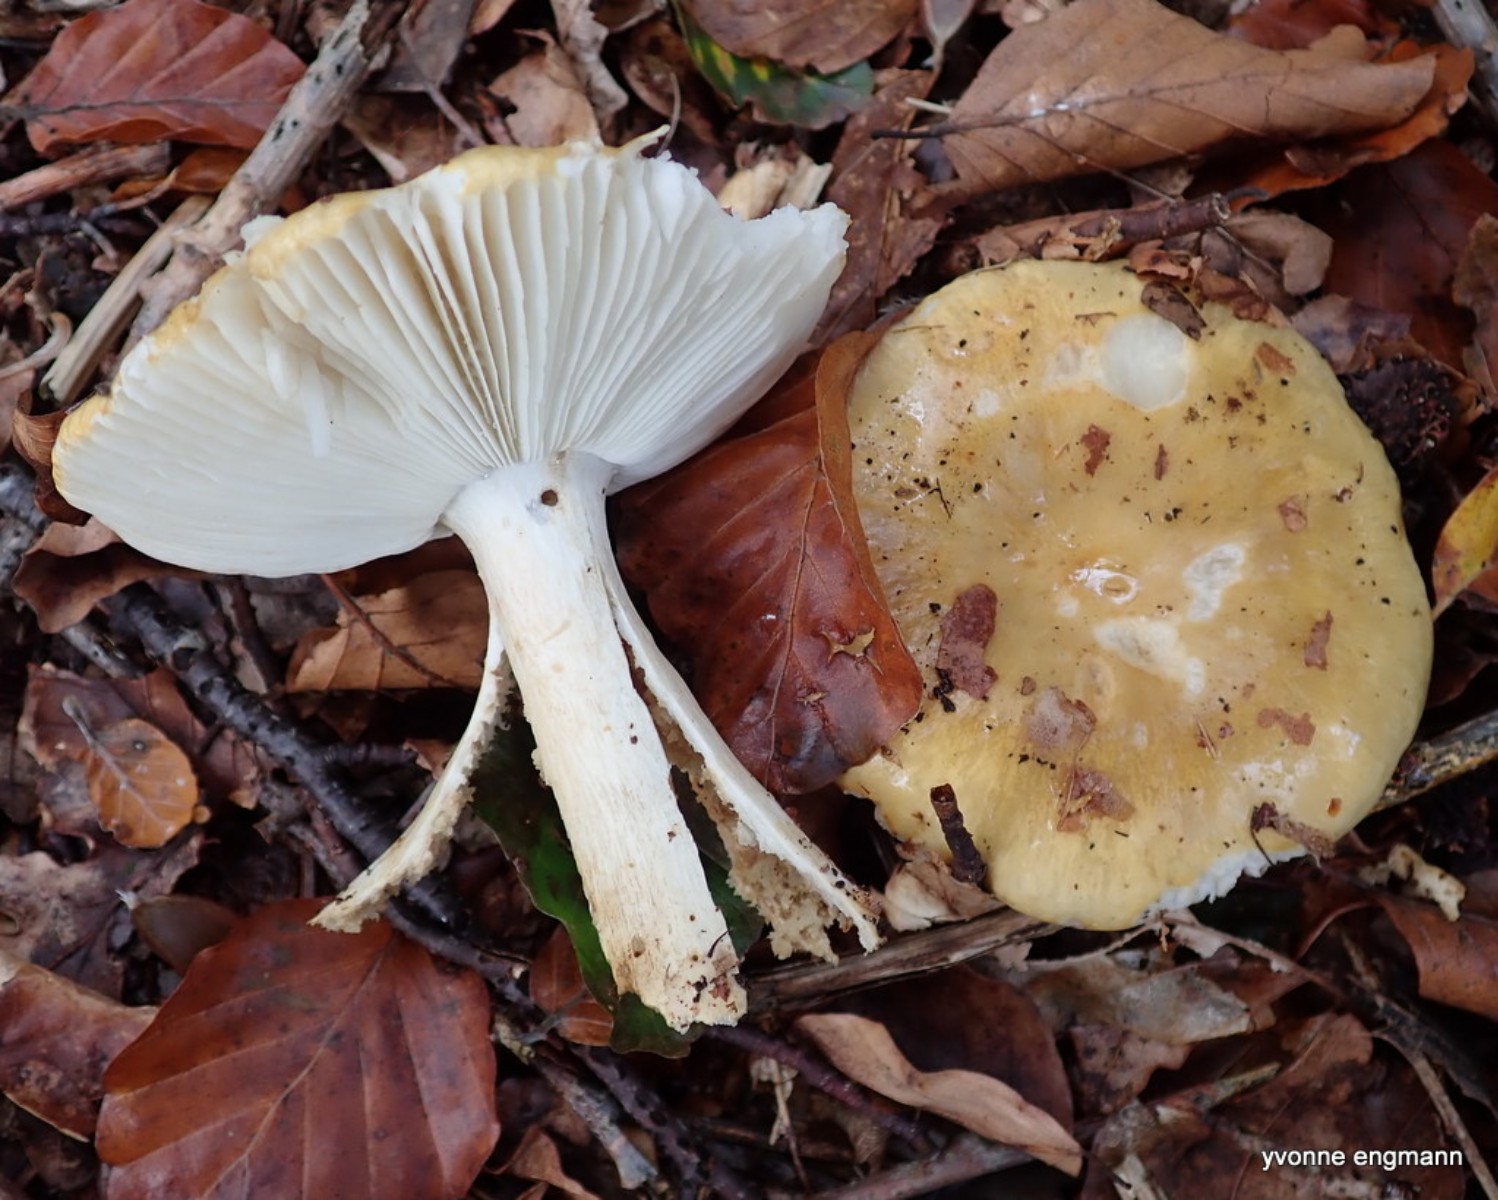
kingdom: Fungi
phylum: Basidiomycota
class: Agaricomycetes
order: Russulales
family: Russulaceae
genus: Russula
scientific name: Russula ochroleuca
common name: okkergul skørhat
